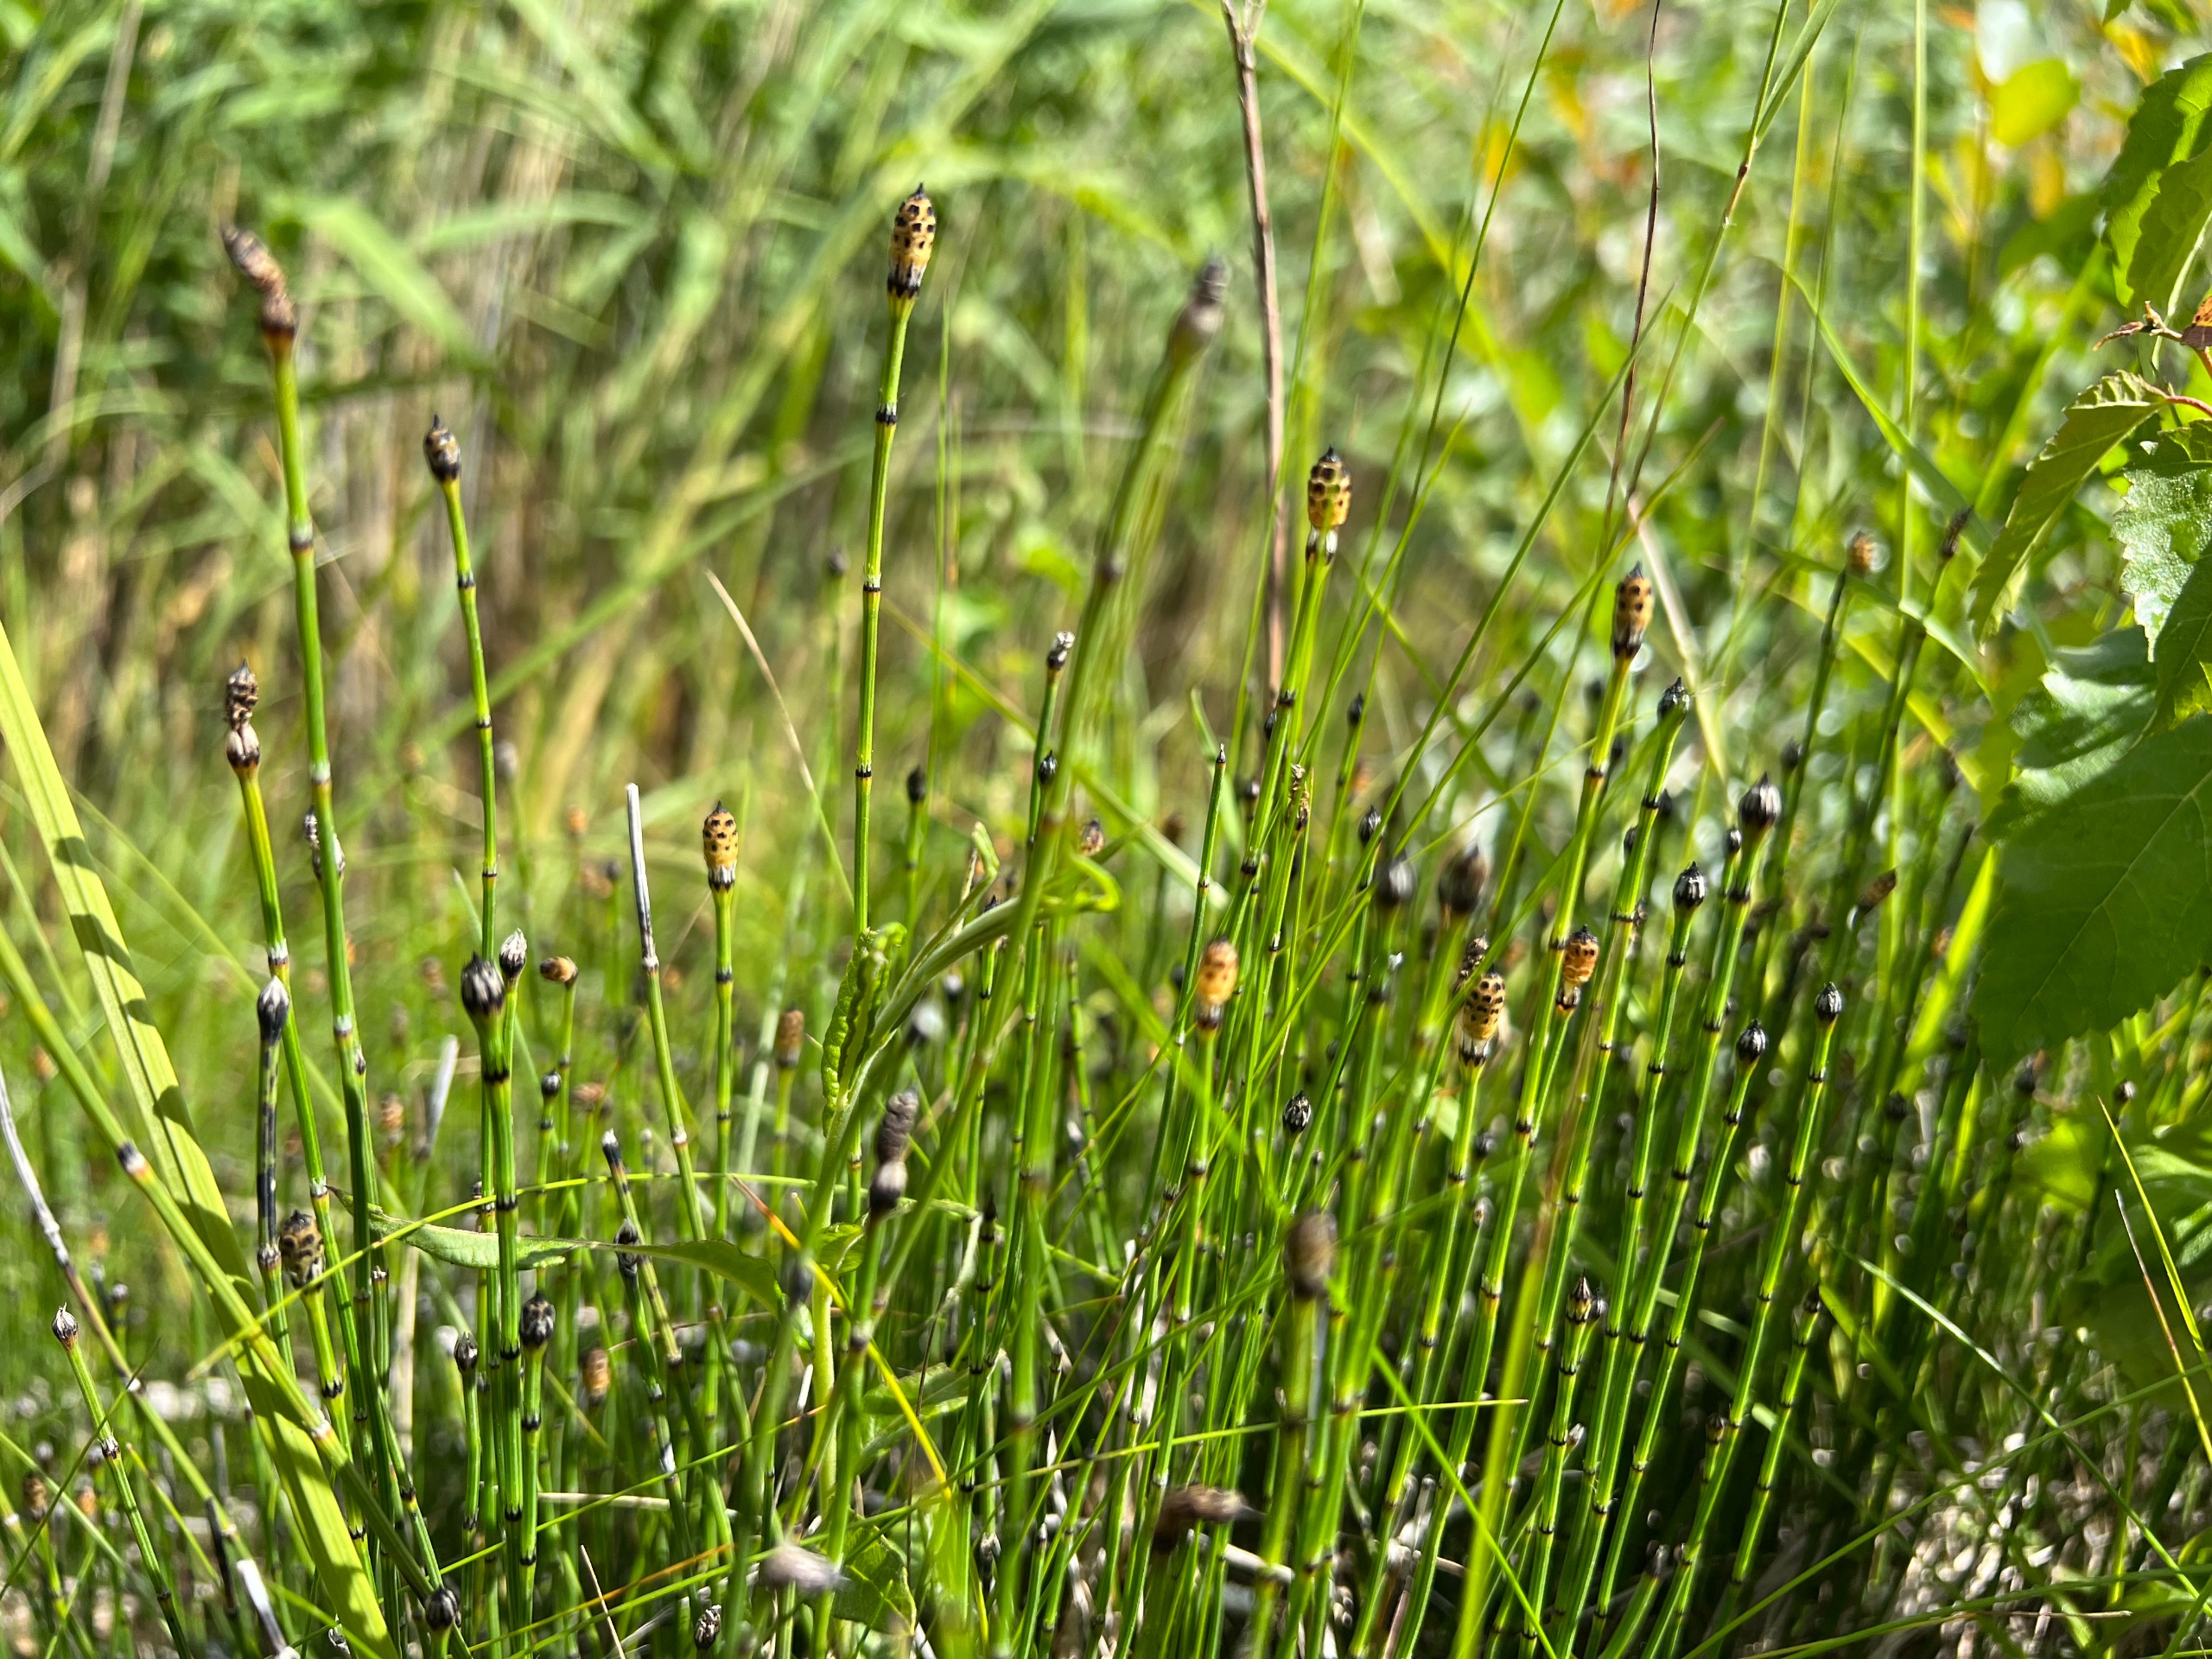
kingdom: Plantae
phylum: Tracheophyta
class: Polypodiopsida
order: Equisetales
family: Equisetaceae
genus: Equisetum
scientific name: Equisetum variegatum
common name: Liden padderok
